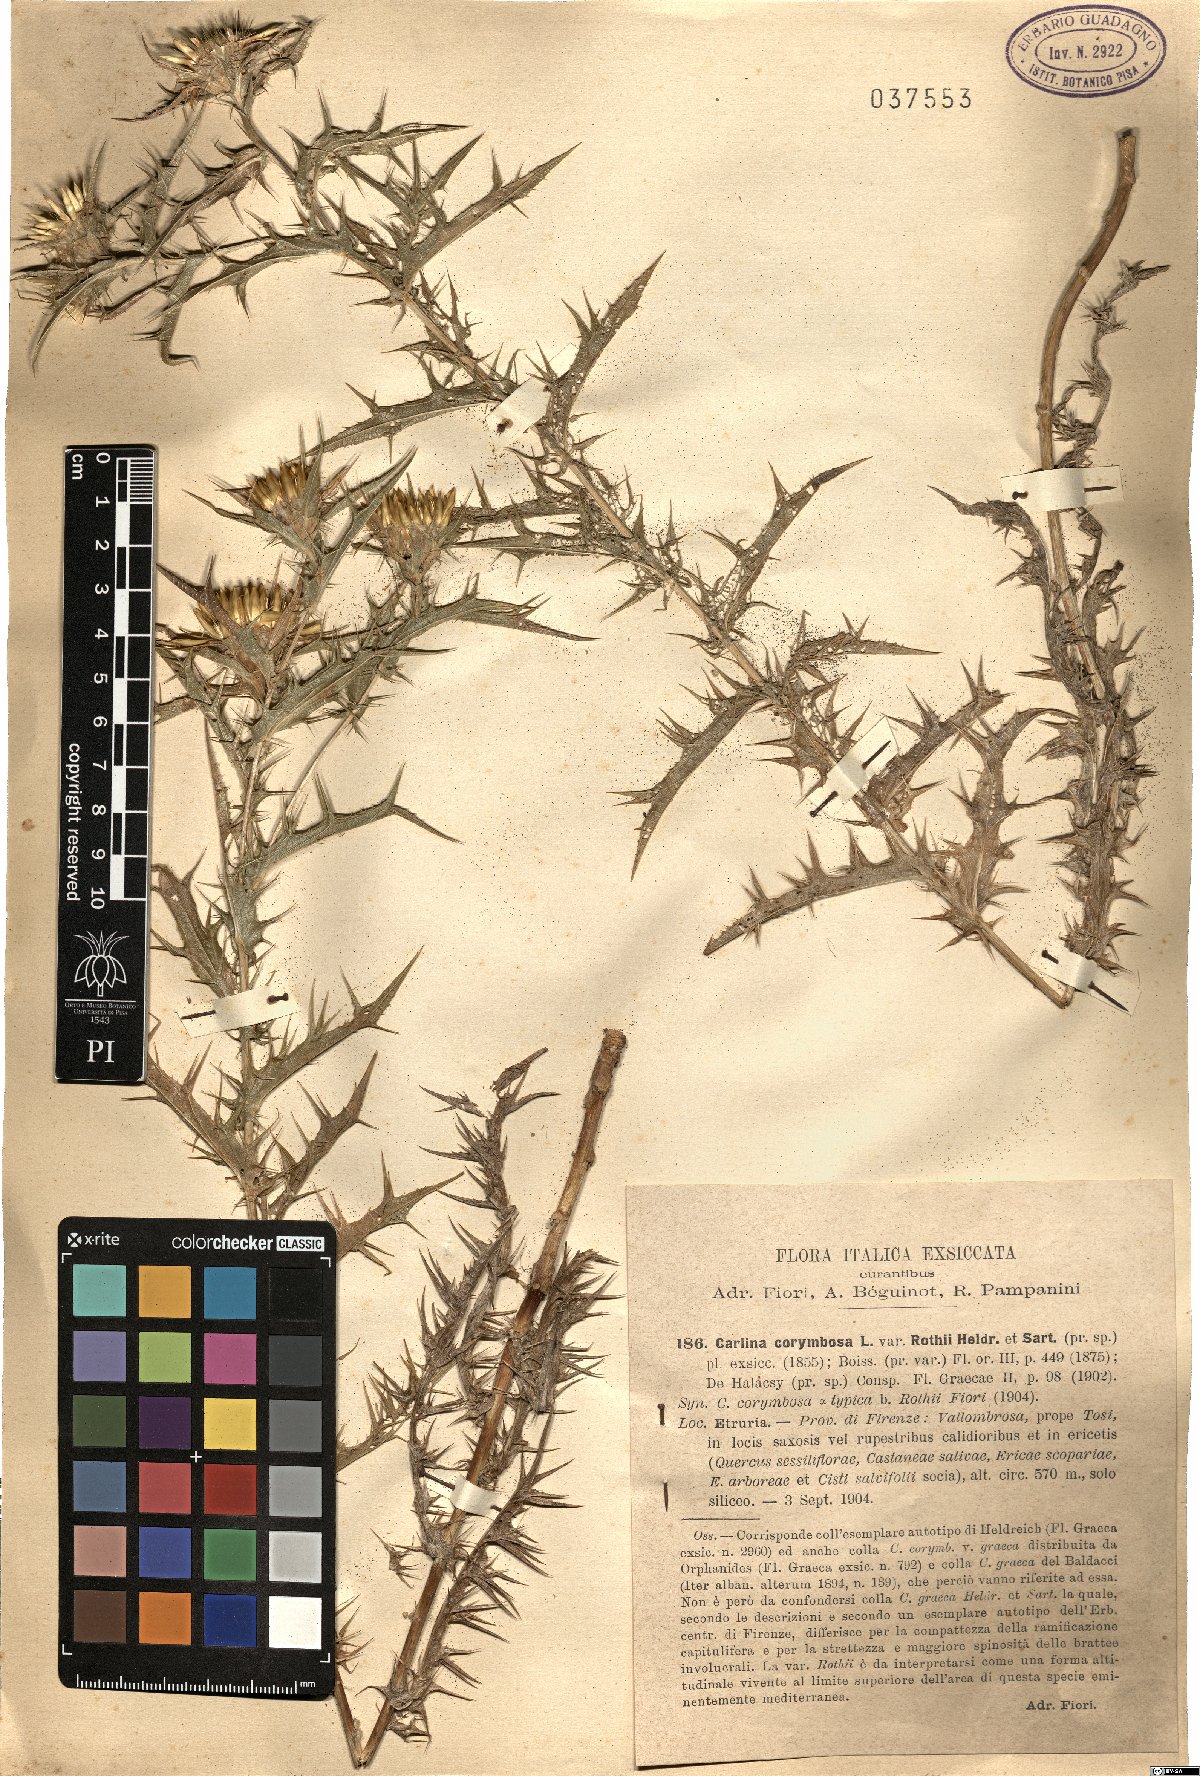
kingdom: Plantae
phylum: Tracheophyta
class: Magnoliopsida
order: Asterales
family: Asteraceae
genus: Carlina
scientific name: Carlina graeca
